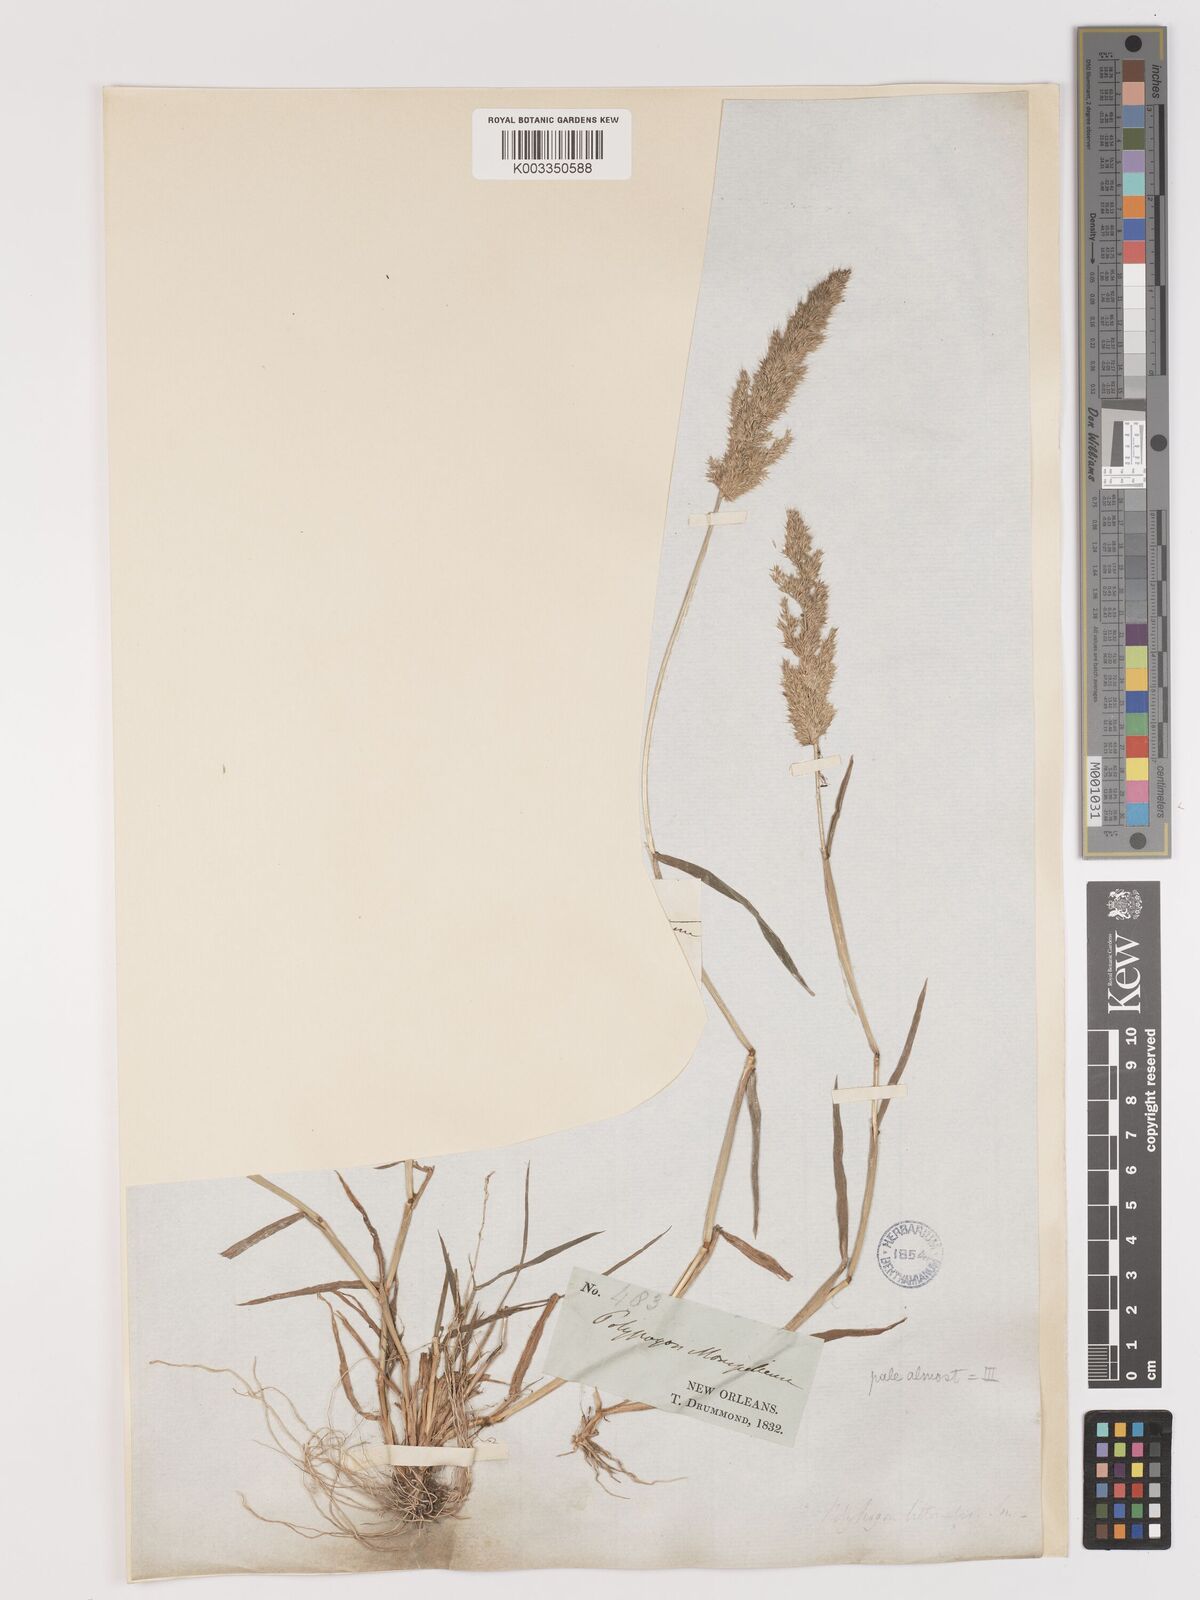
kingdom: Plantae
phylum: Tracheophyta
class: Liliopsida
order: Poales
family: Poaceae
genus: Agropogon
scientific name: Agropogon lutosus
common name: Coast agropogon
